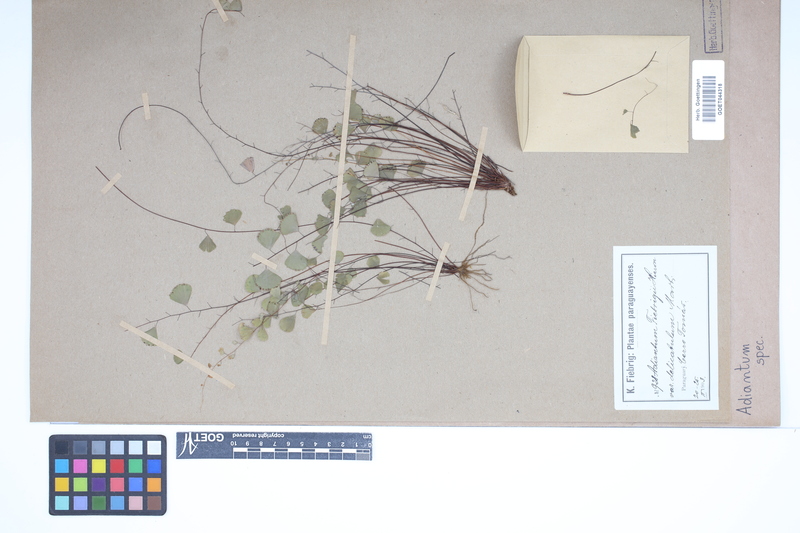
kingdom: Plantae
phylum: Tracheophyta
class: Polypodiopsida
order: Polypodiales
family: Pteridaceae
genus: Adiantum
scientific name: Adiantum
